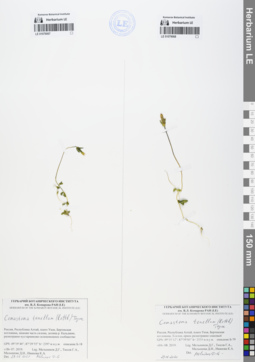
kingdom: Plantae
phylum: Tracheophyta
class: Magnoliopsida
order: Gentianales
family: Gentianaceae
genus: Comastoma
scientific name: Comastoma tenellum
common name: Dane's dwarf gentian
